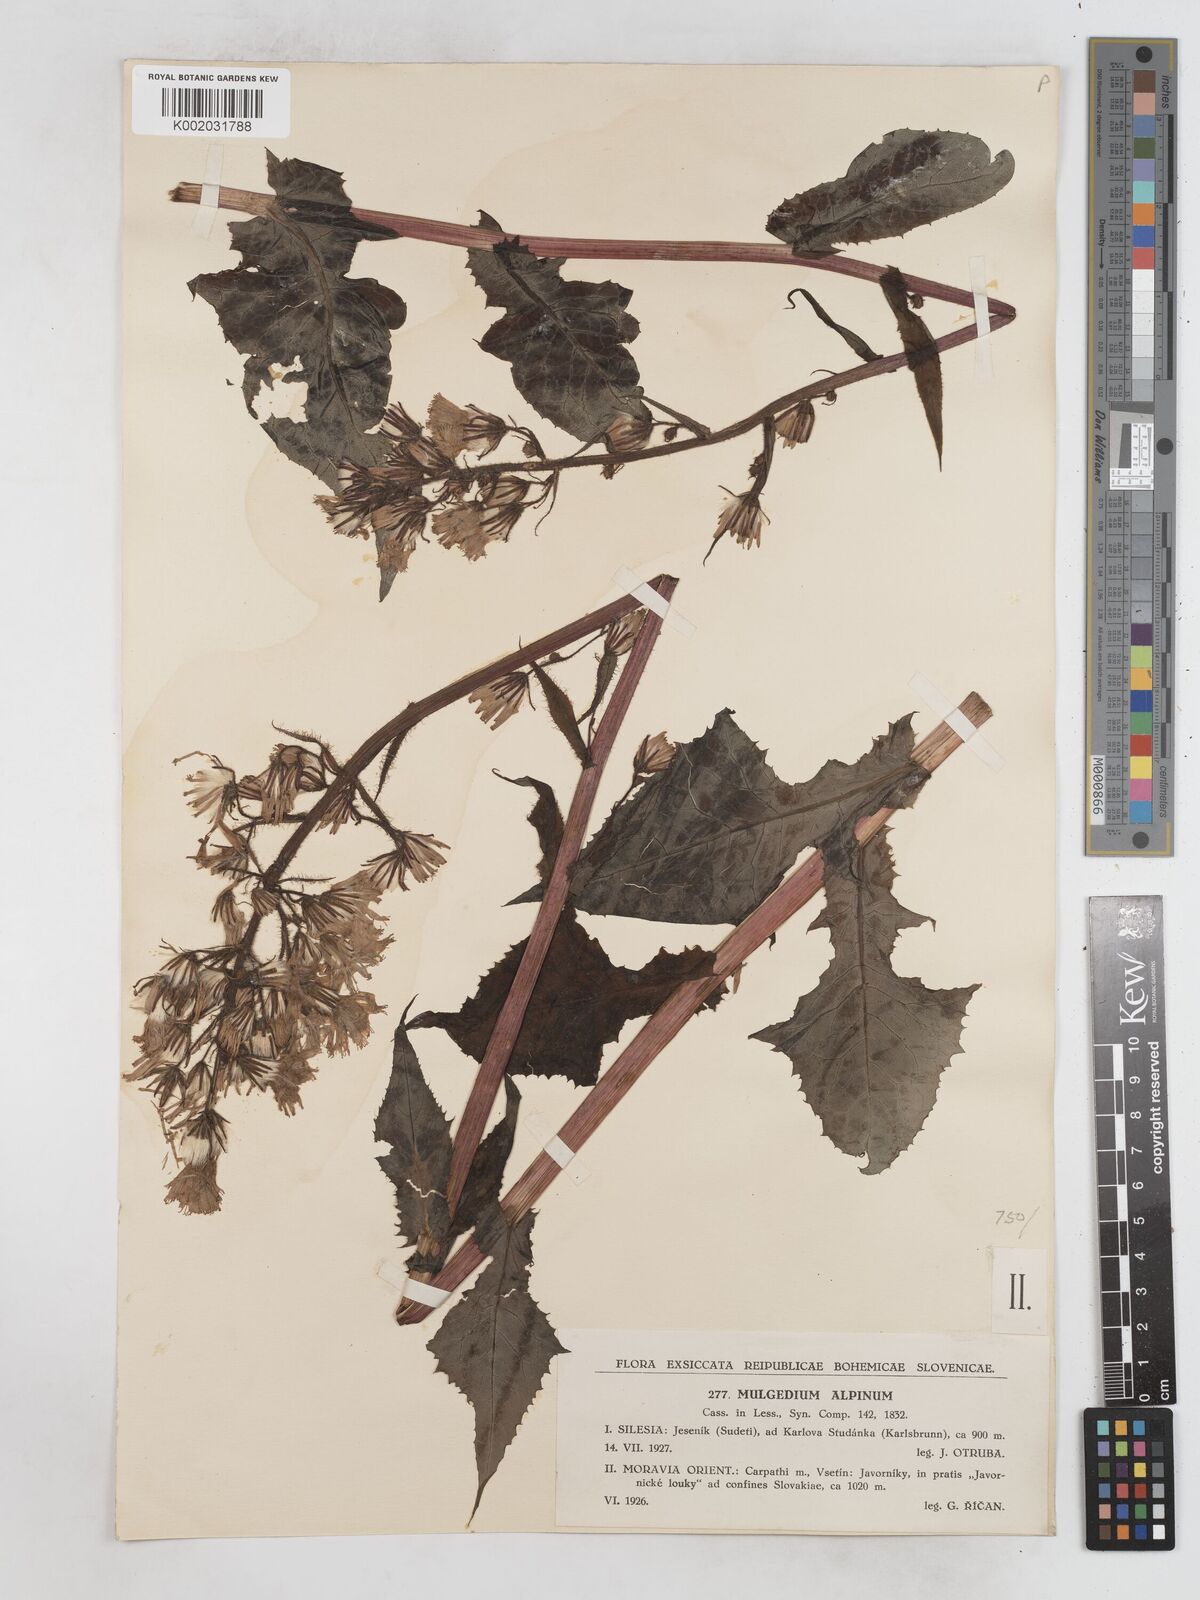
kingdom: Plantae
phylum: Tracheophyta
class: Magnoliopsida
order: Asterales
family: Asteraceae
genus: Cicerbita
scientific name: Cicerbita alpina
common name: Alpine blue-sow-thistle
